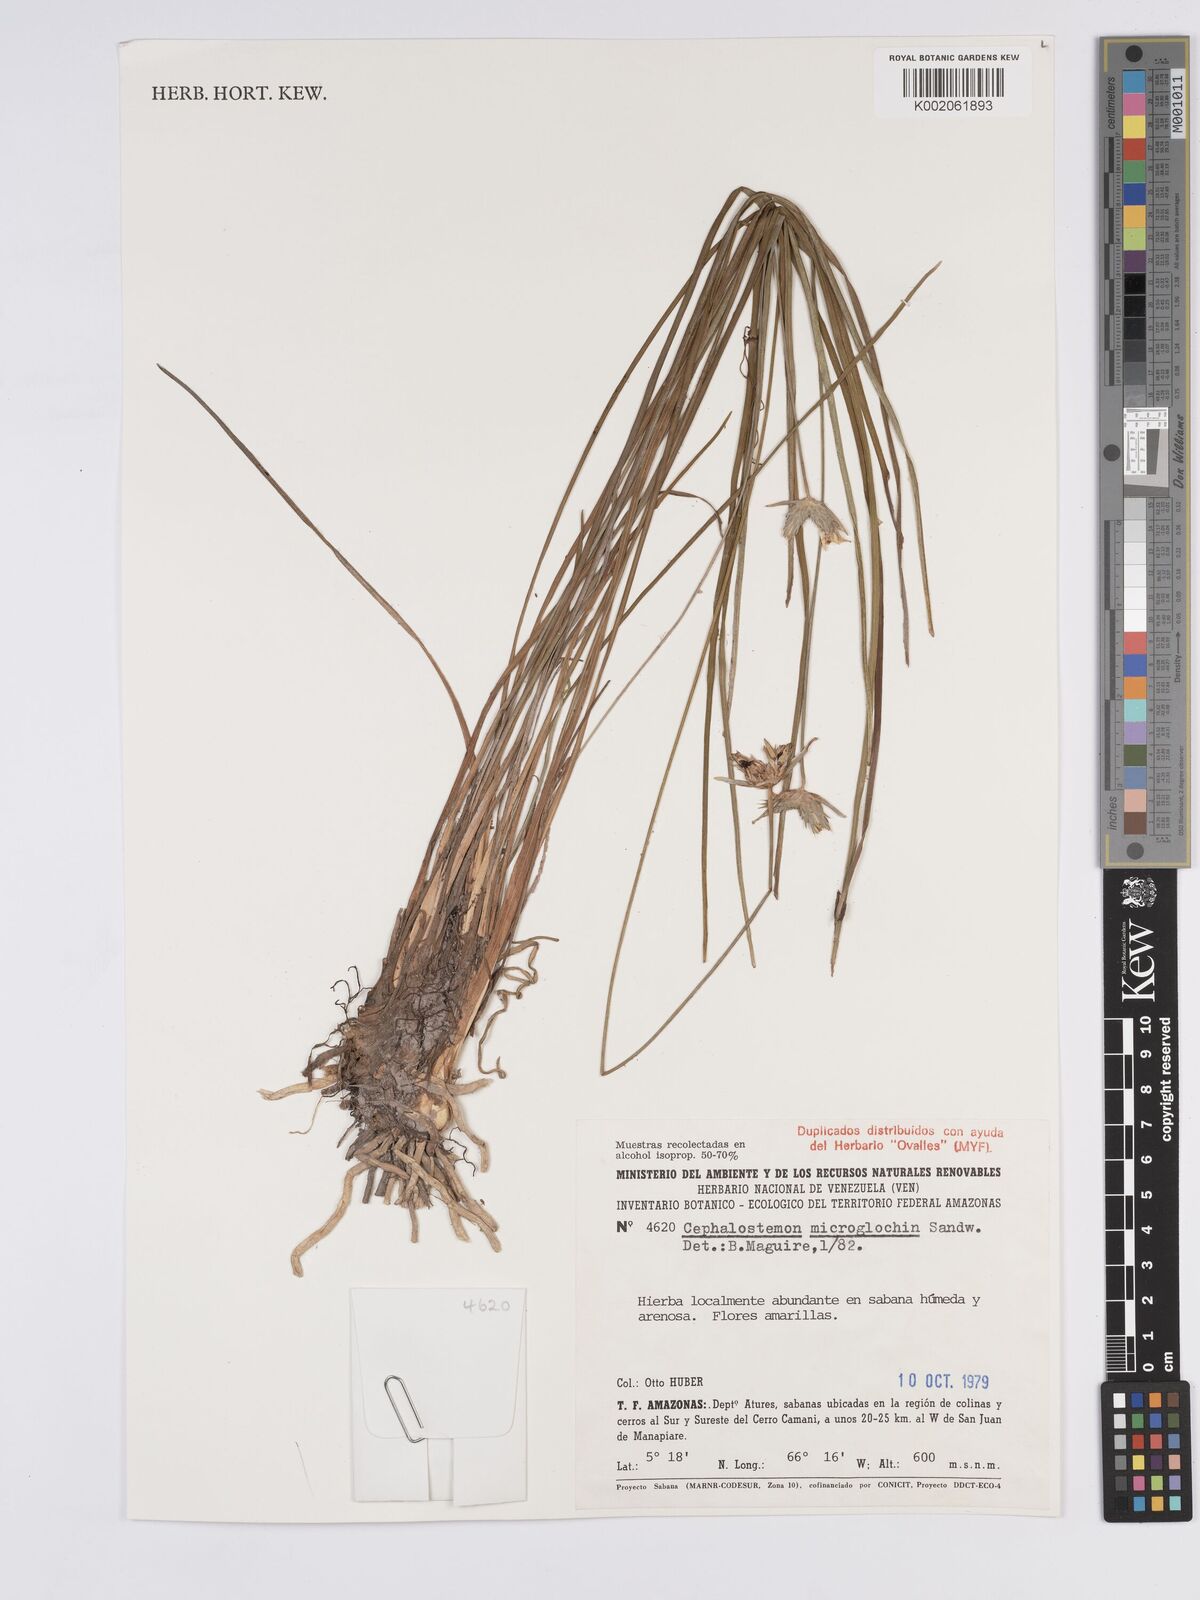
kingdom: Plantae
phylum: Tracheophyta
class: Liliopsida
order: Poales
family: Rapateaceae
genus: Cephalostemon
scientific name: Cephalostemon microglochin
